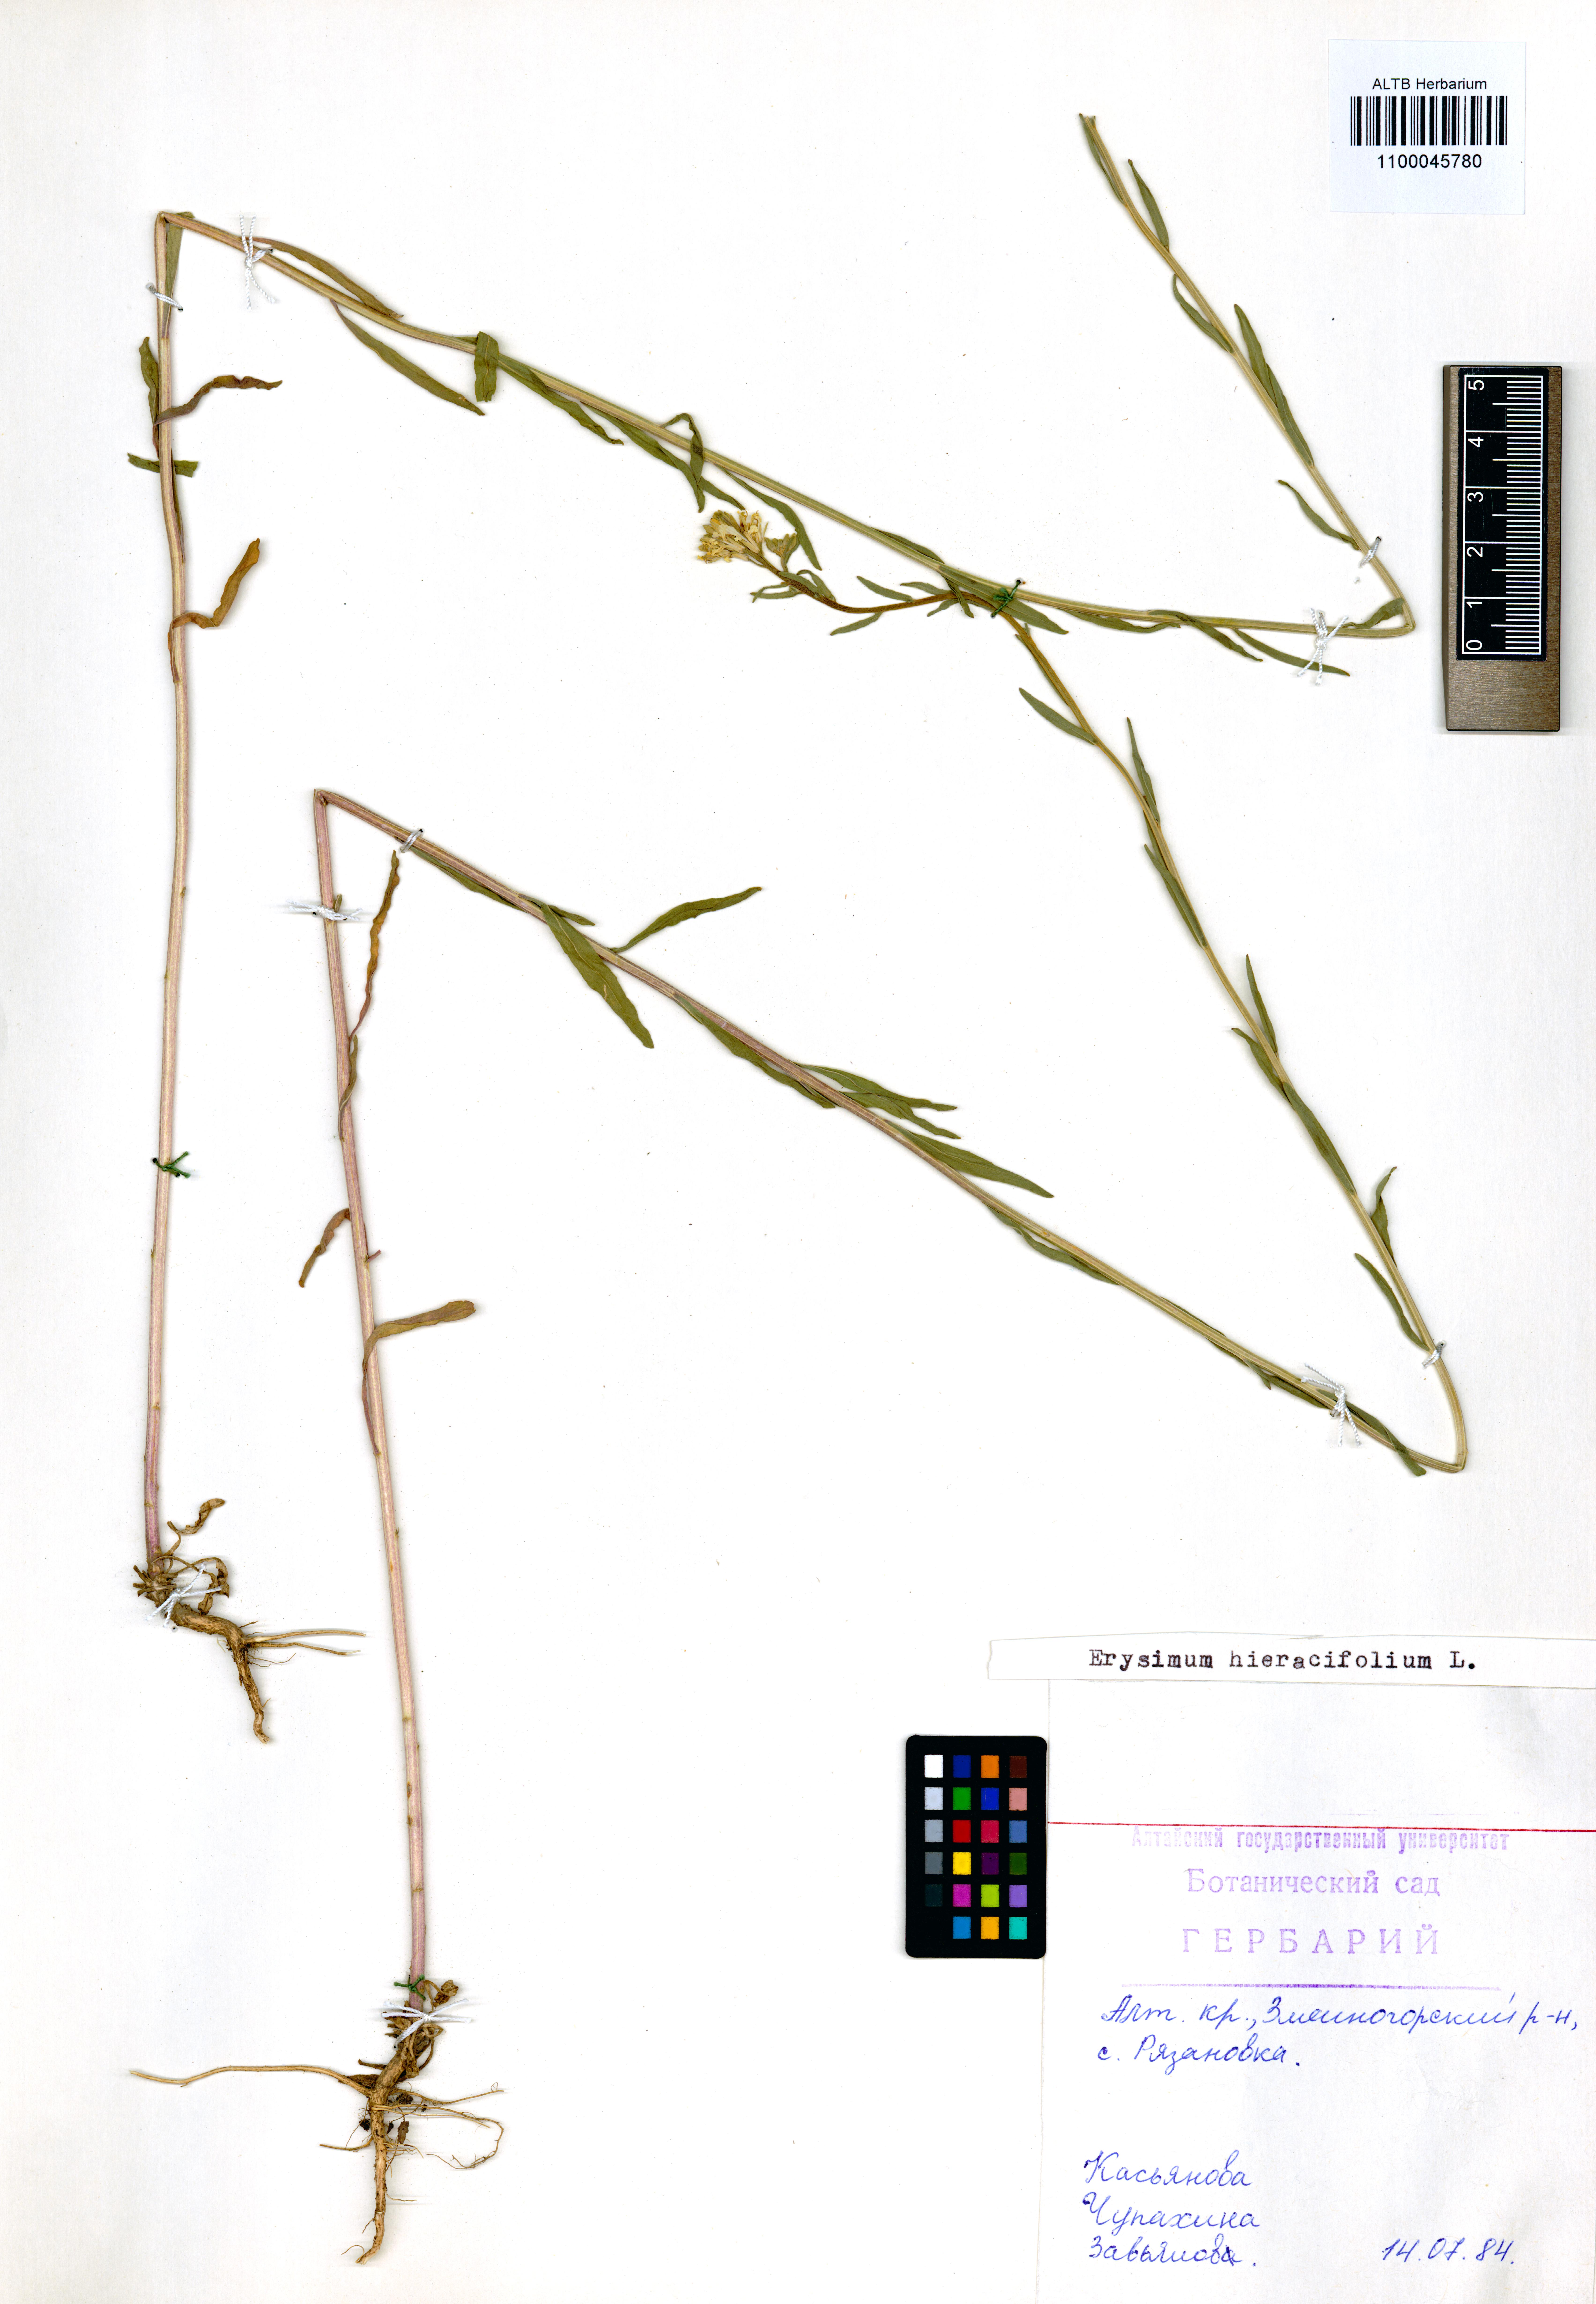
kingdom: Plantae
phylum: Tracheophyta
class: Magnoliopsida
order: Brassicales
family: Brassicaceae
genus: Erysimum
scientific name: Erysimum hieraciifolium
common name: European wallflower
